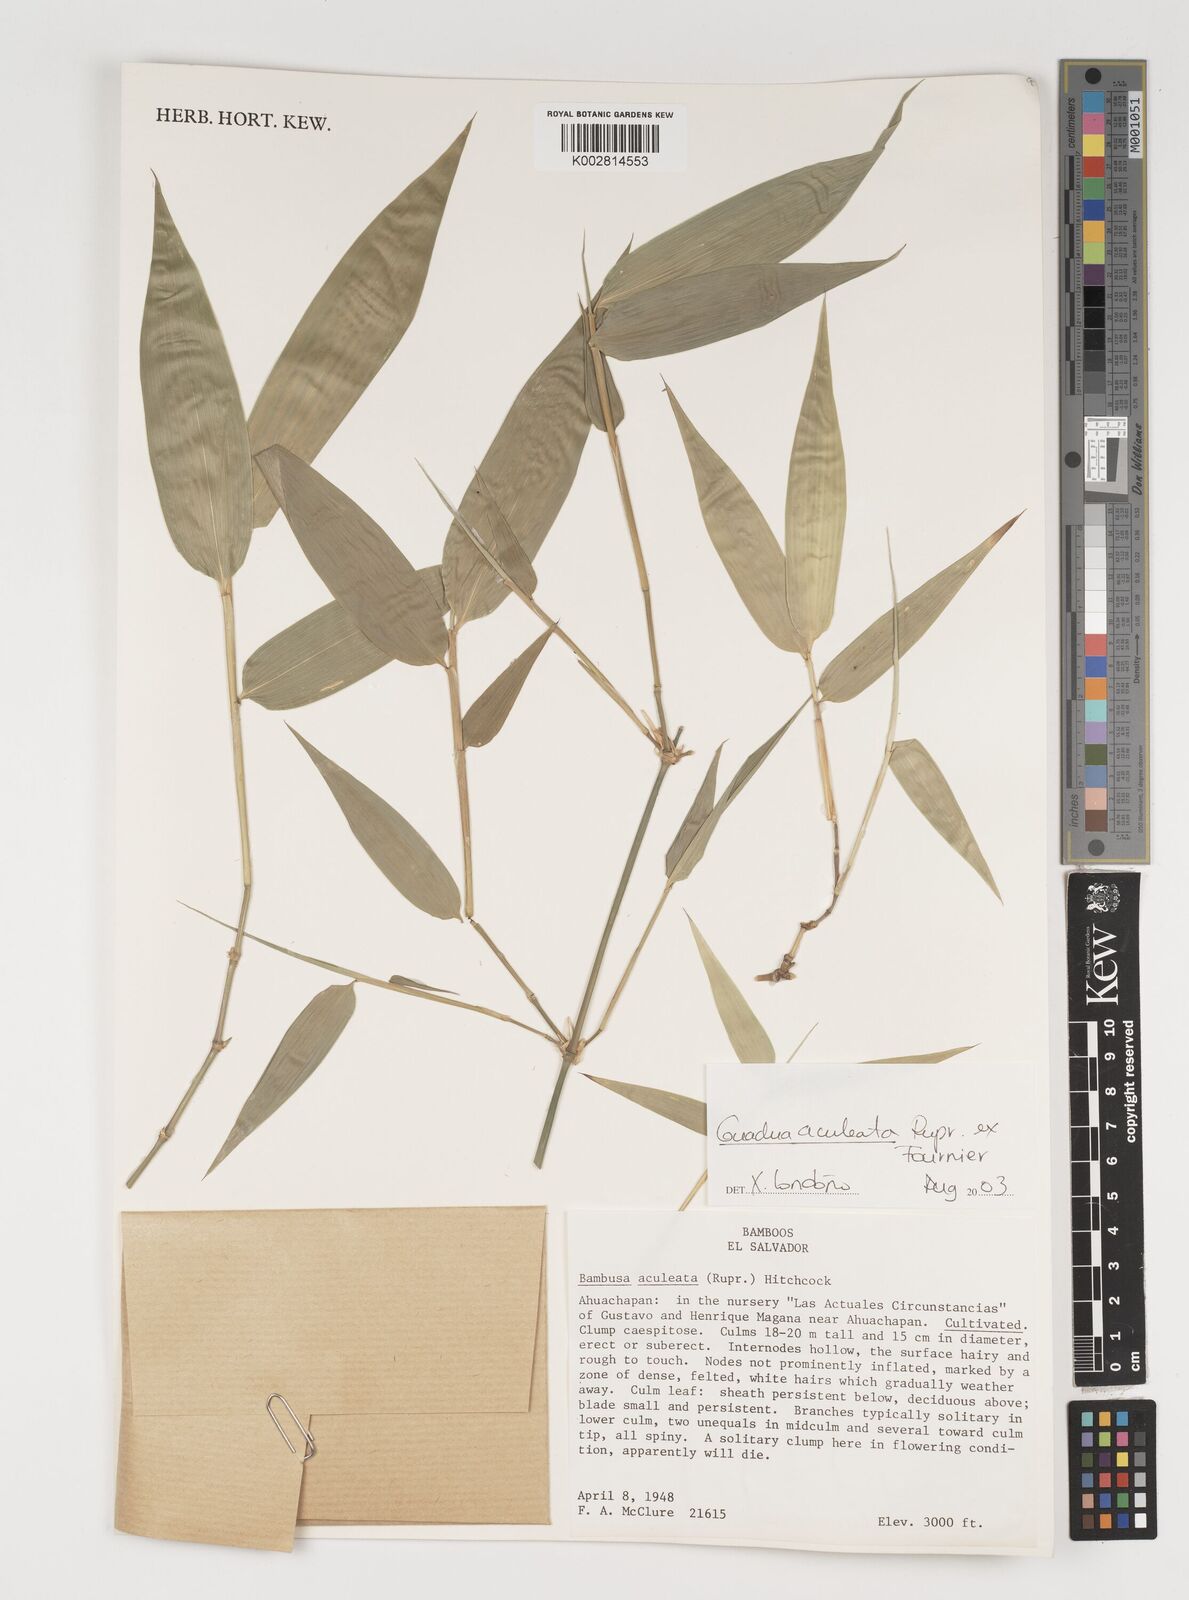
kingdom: Plantae
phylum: Tracheophyta
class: Liliopsida
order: Poales
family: Poaceae
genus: Guadua
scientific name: Guadua aculeata
